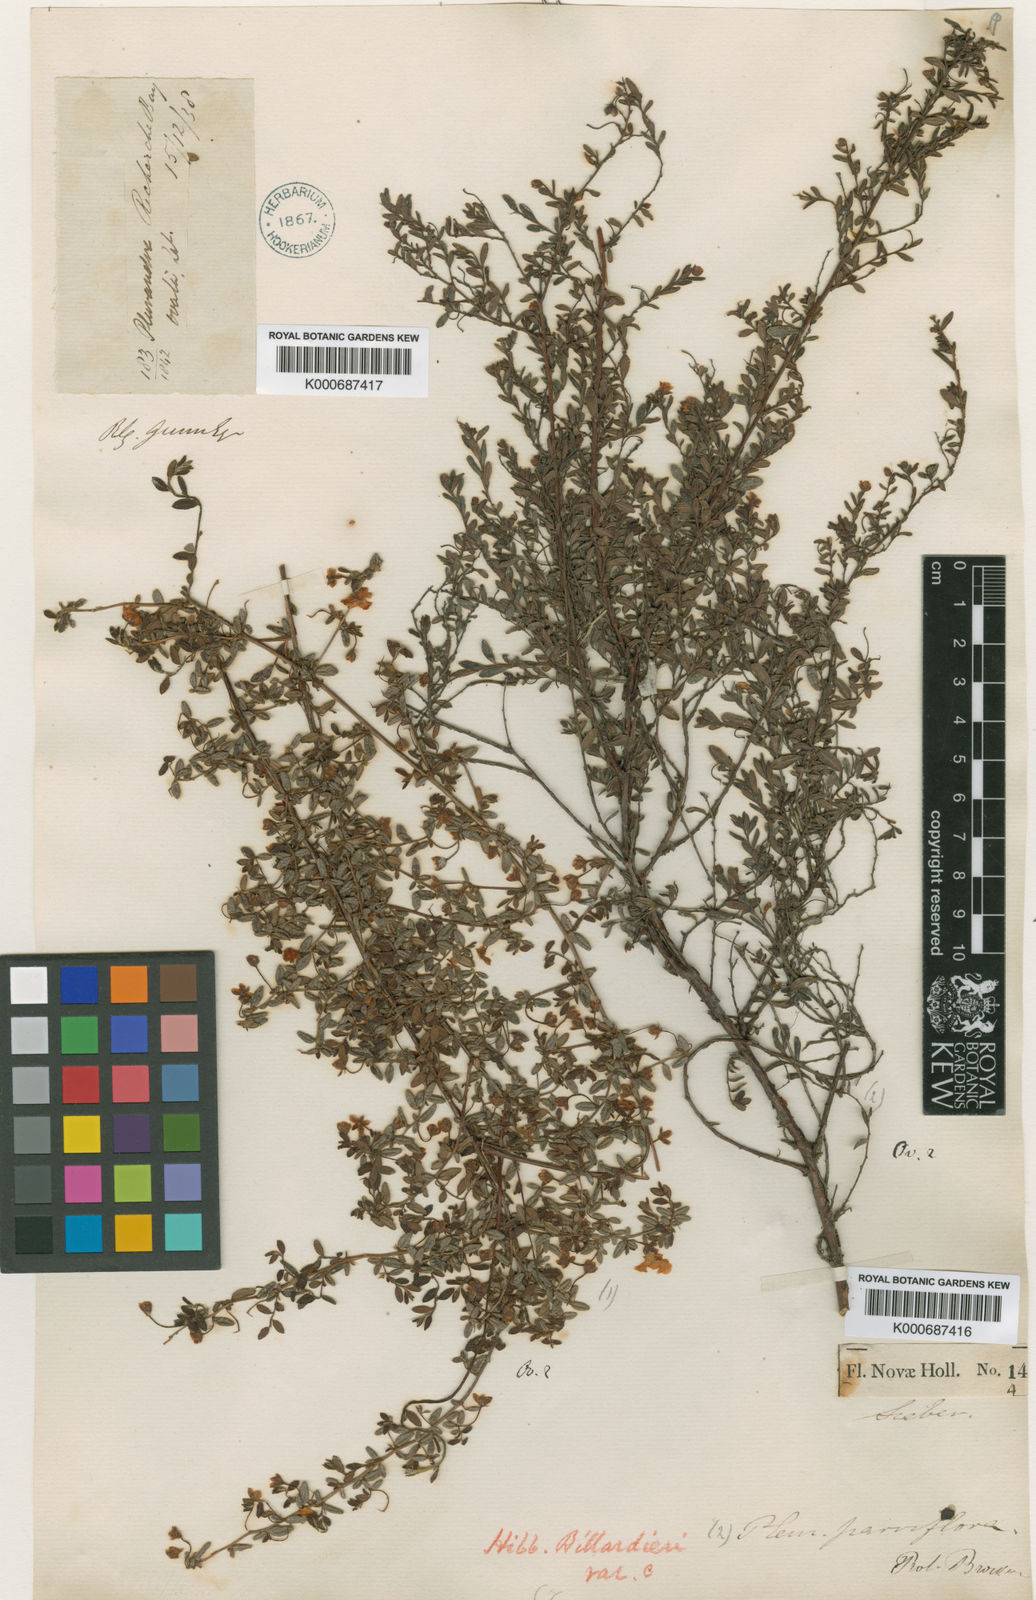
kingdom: Plantae
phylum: Tracheophyta
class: Magnoliopsida
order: Dilleniales
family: Dilleniaceae
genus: Hibbertia
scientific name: Hibbertia aspera
